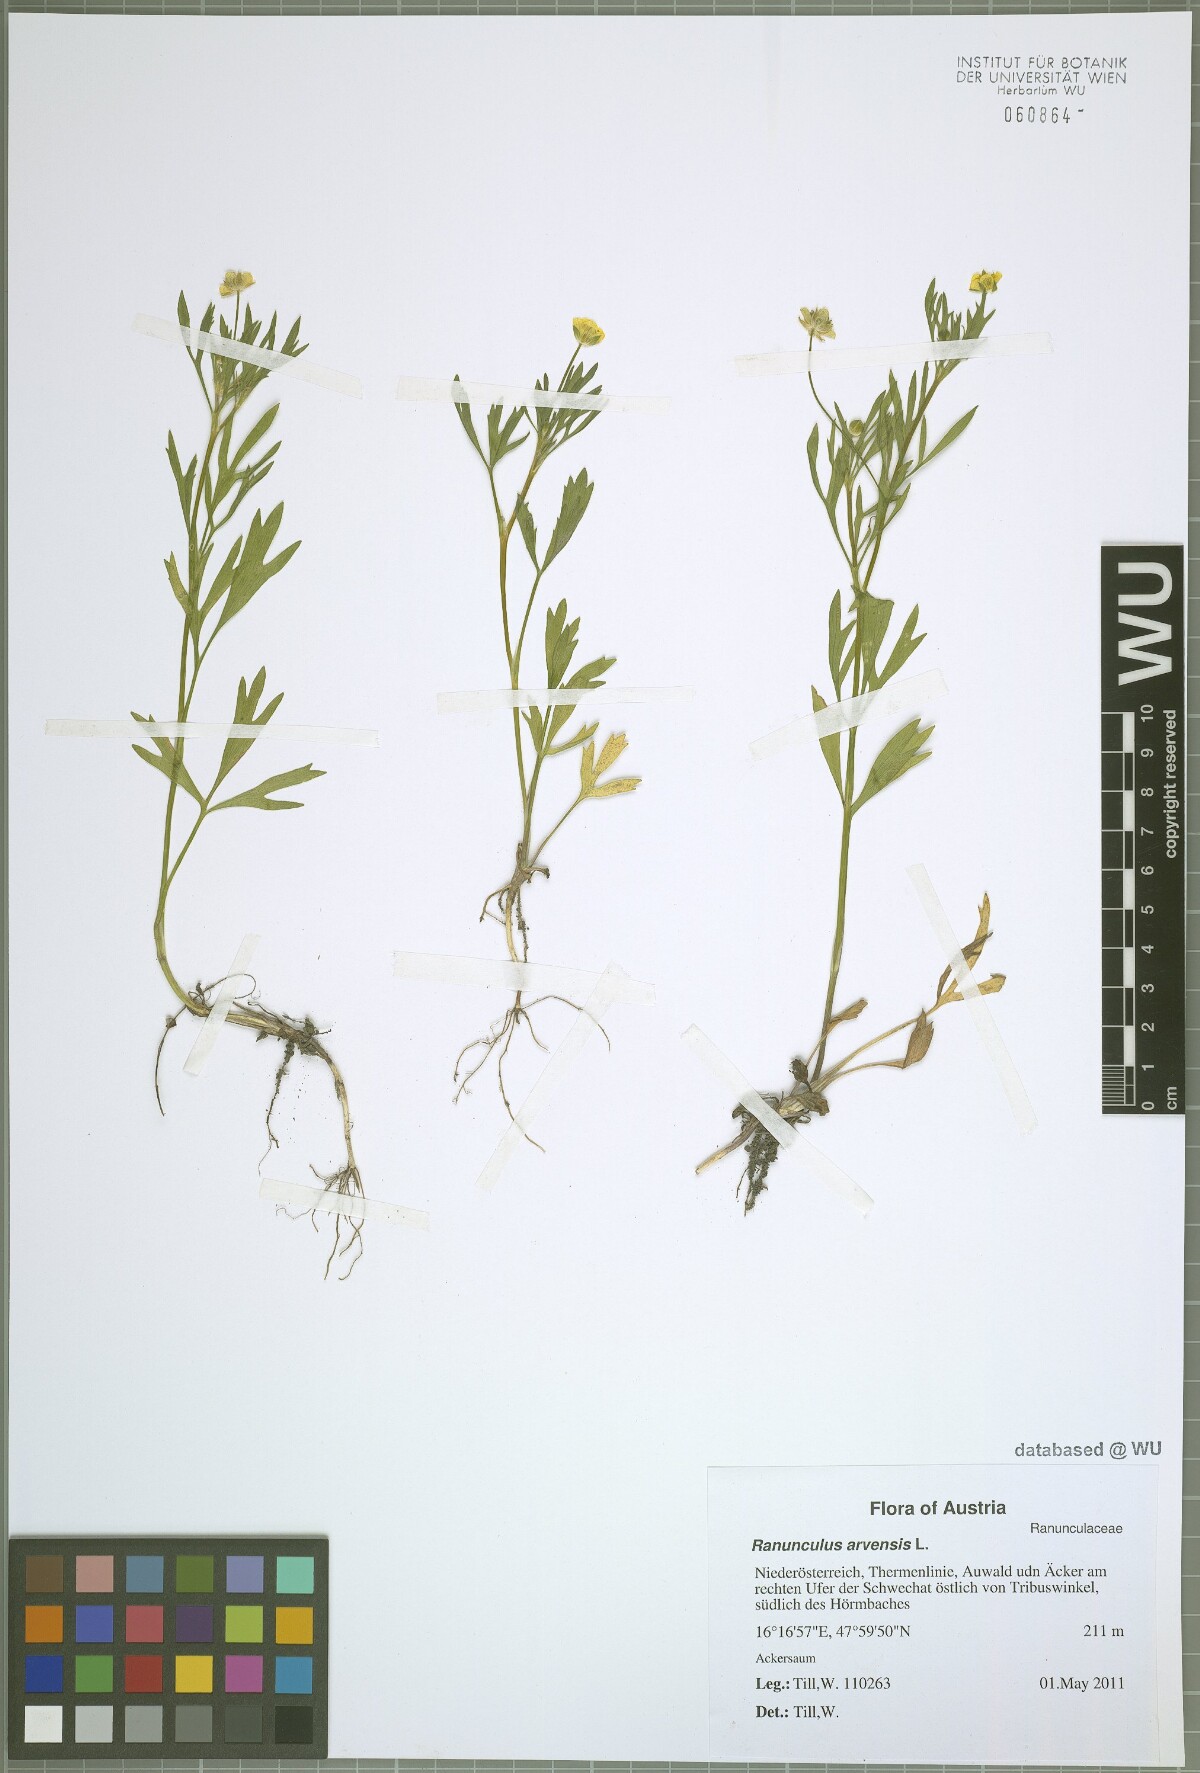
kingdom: Plantae
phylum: Tracheophyta
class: Magnoliopsida
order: Ranunculales
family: Ranunculaceae
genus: Ranunculus
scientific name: Ranunculus arvensis
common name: Corn buttercup
